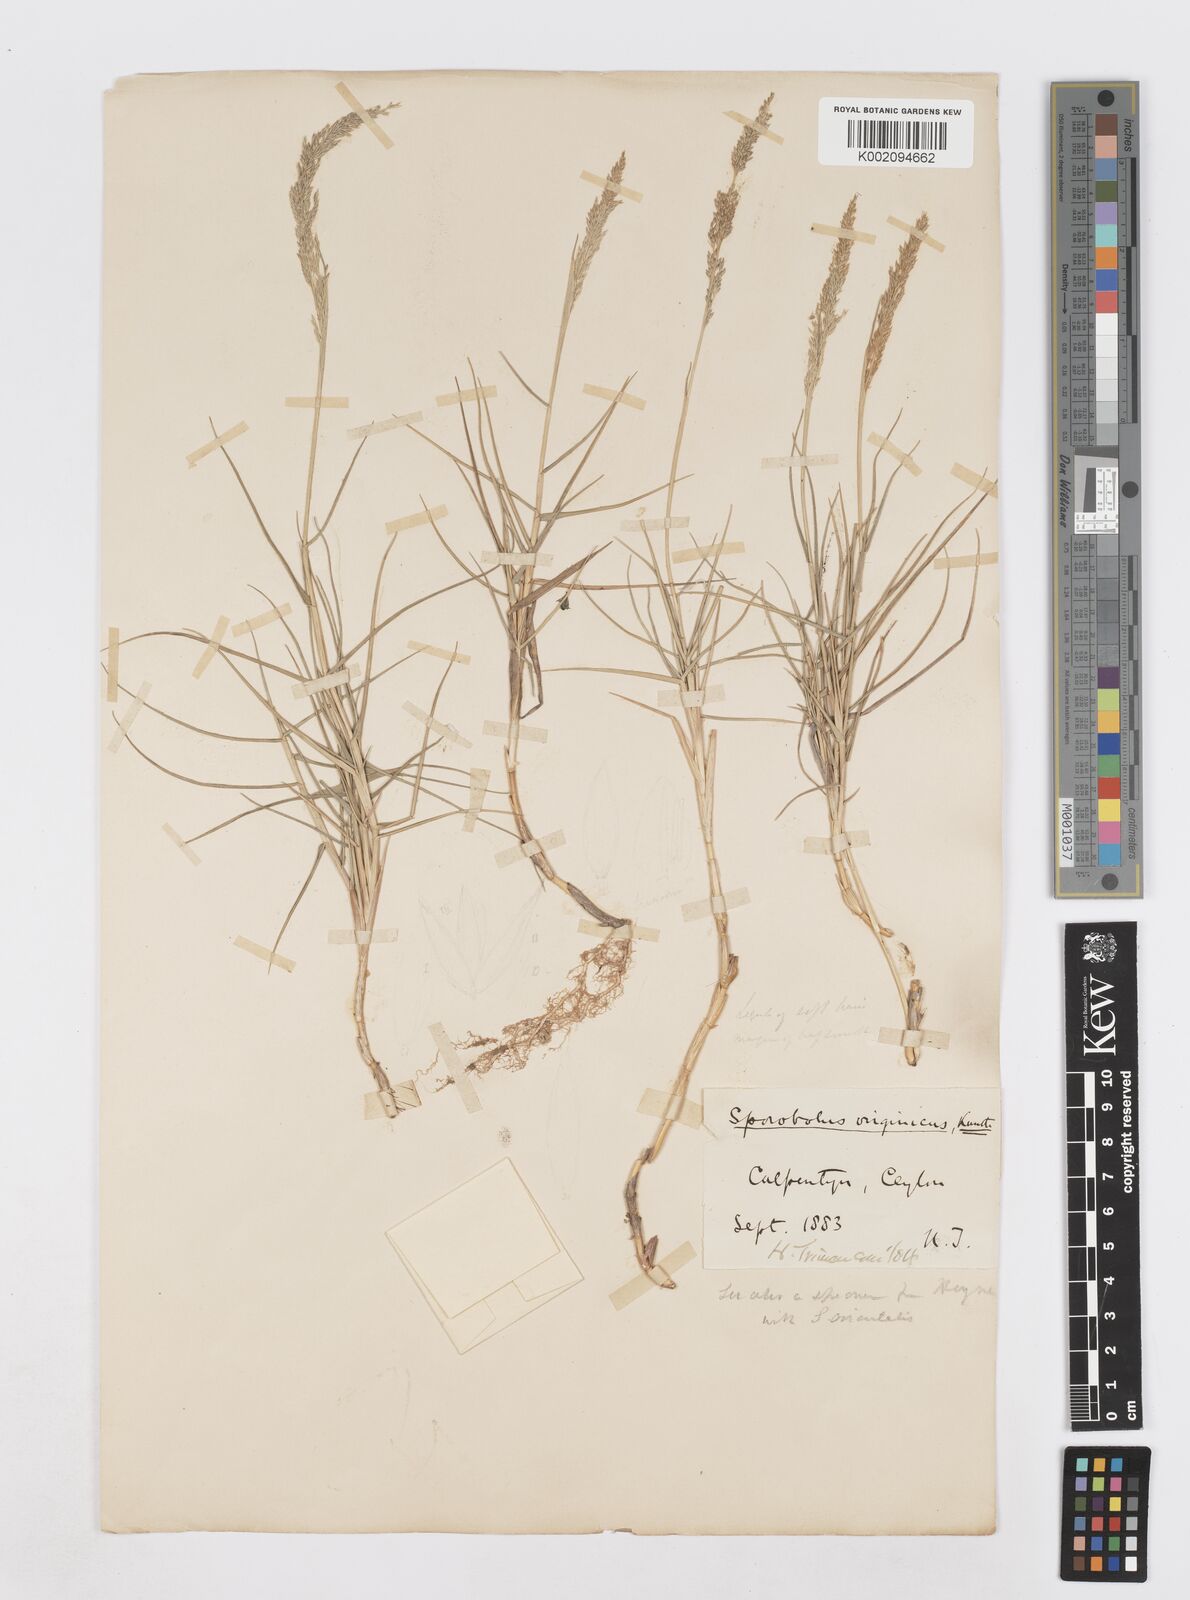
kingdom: Plantae
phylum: Tracheophyta
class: Liliopsida
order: Poales
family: Poaceae
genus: Sporobolus
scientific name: Sporobolus virginicus
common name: Beach dropseed
